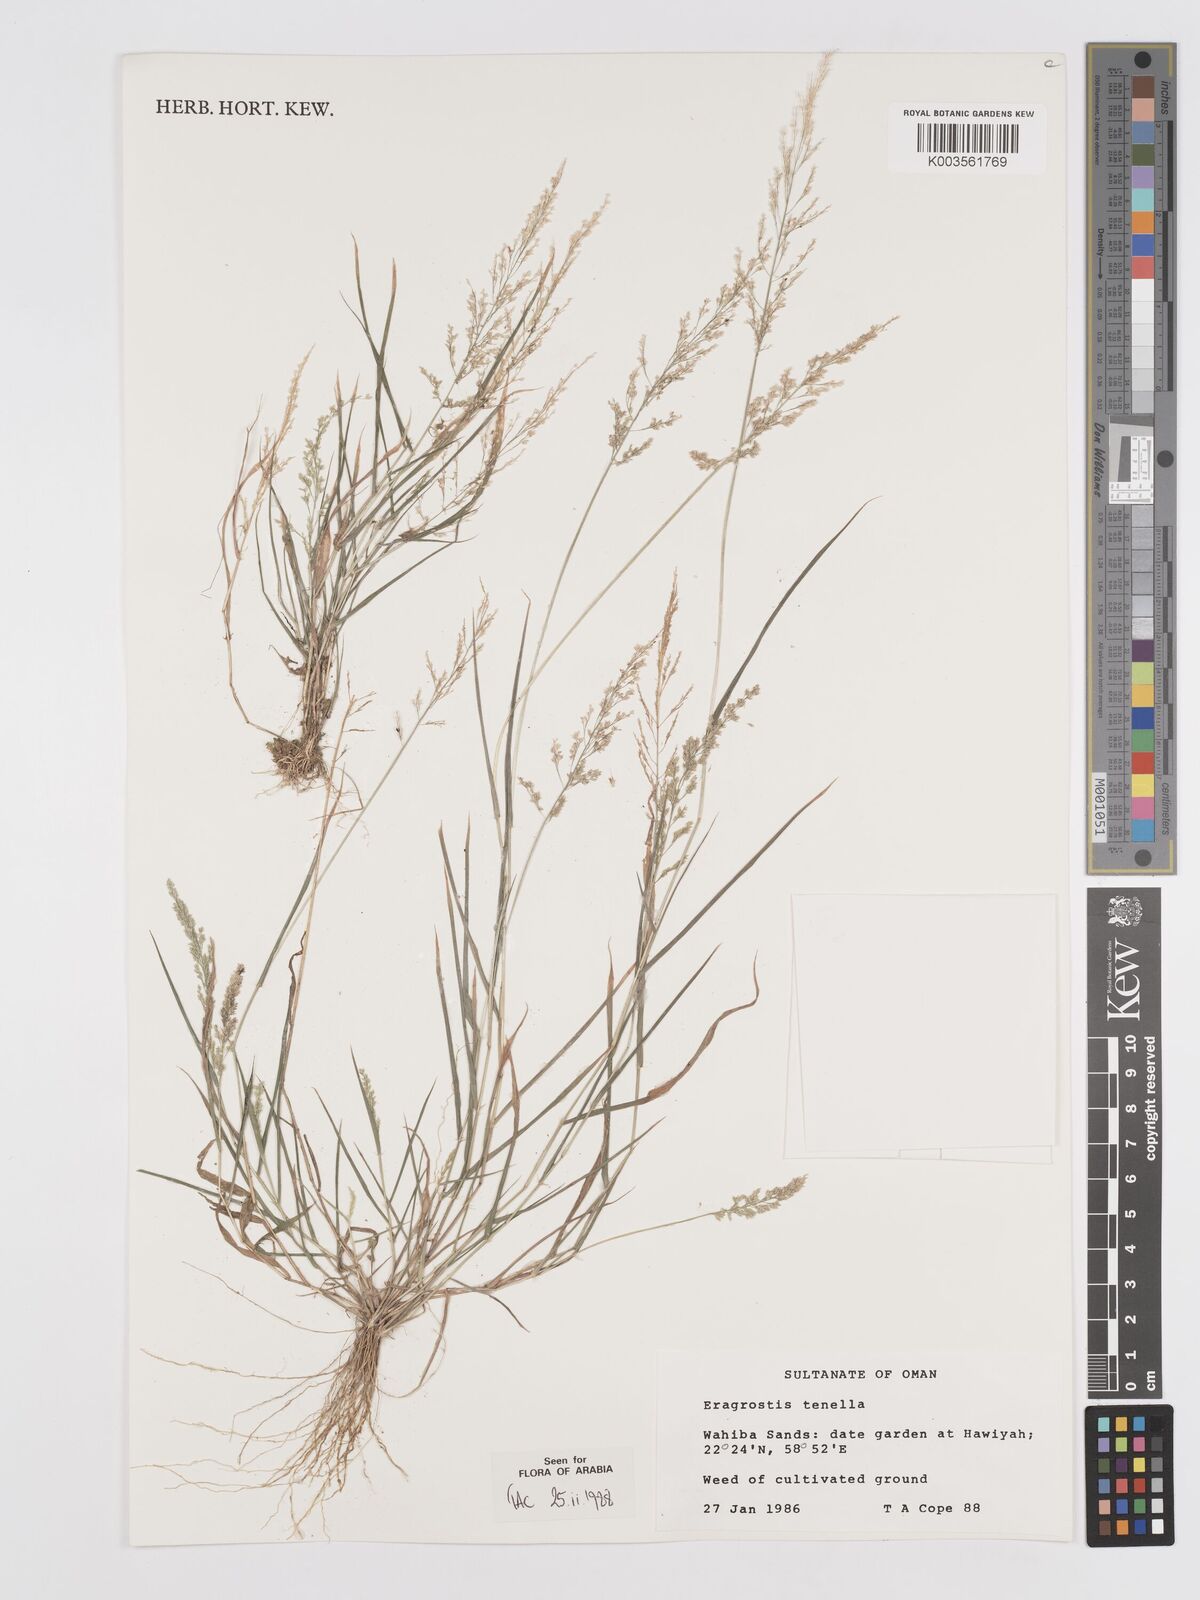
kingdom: Plantae
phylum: Tracheophyta
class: Liliopsida
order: Poales
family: Poaceae
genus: Eragrostis
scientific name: Eragrostis tenella
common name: Japanese lovegrass
